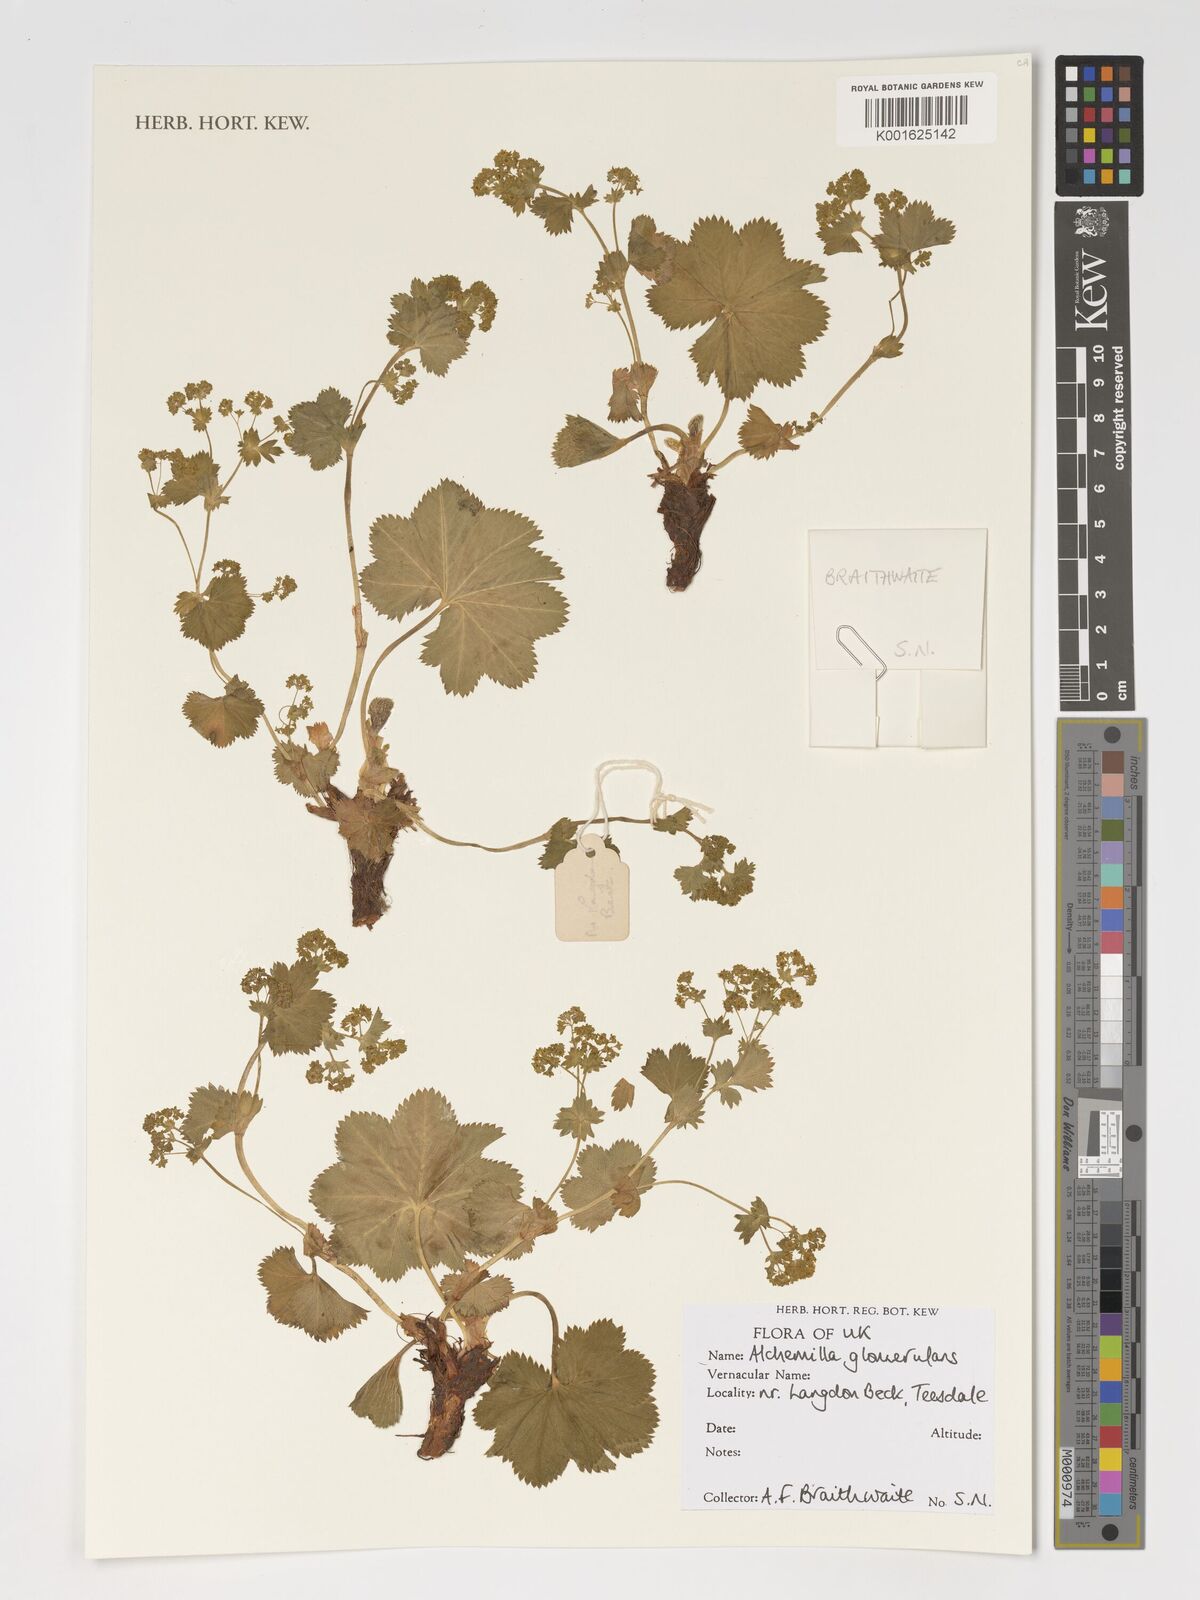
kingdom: Plantae
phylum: Tracheophyta
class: Magnoliopsida
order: Rosales
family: Rosaceae
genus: Alchemilla
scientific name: Alchemilla glomerulans
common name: Clustered lady's mantle
